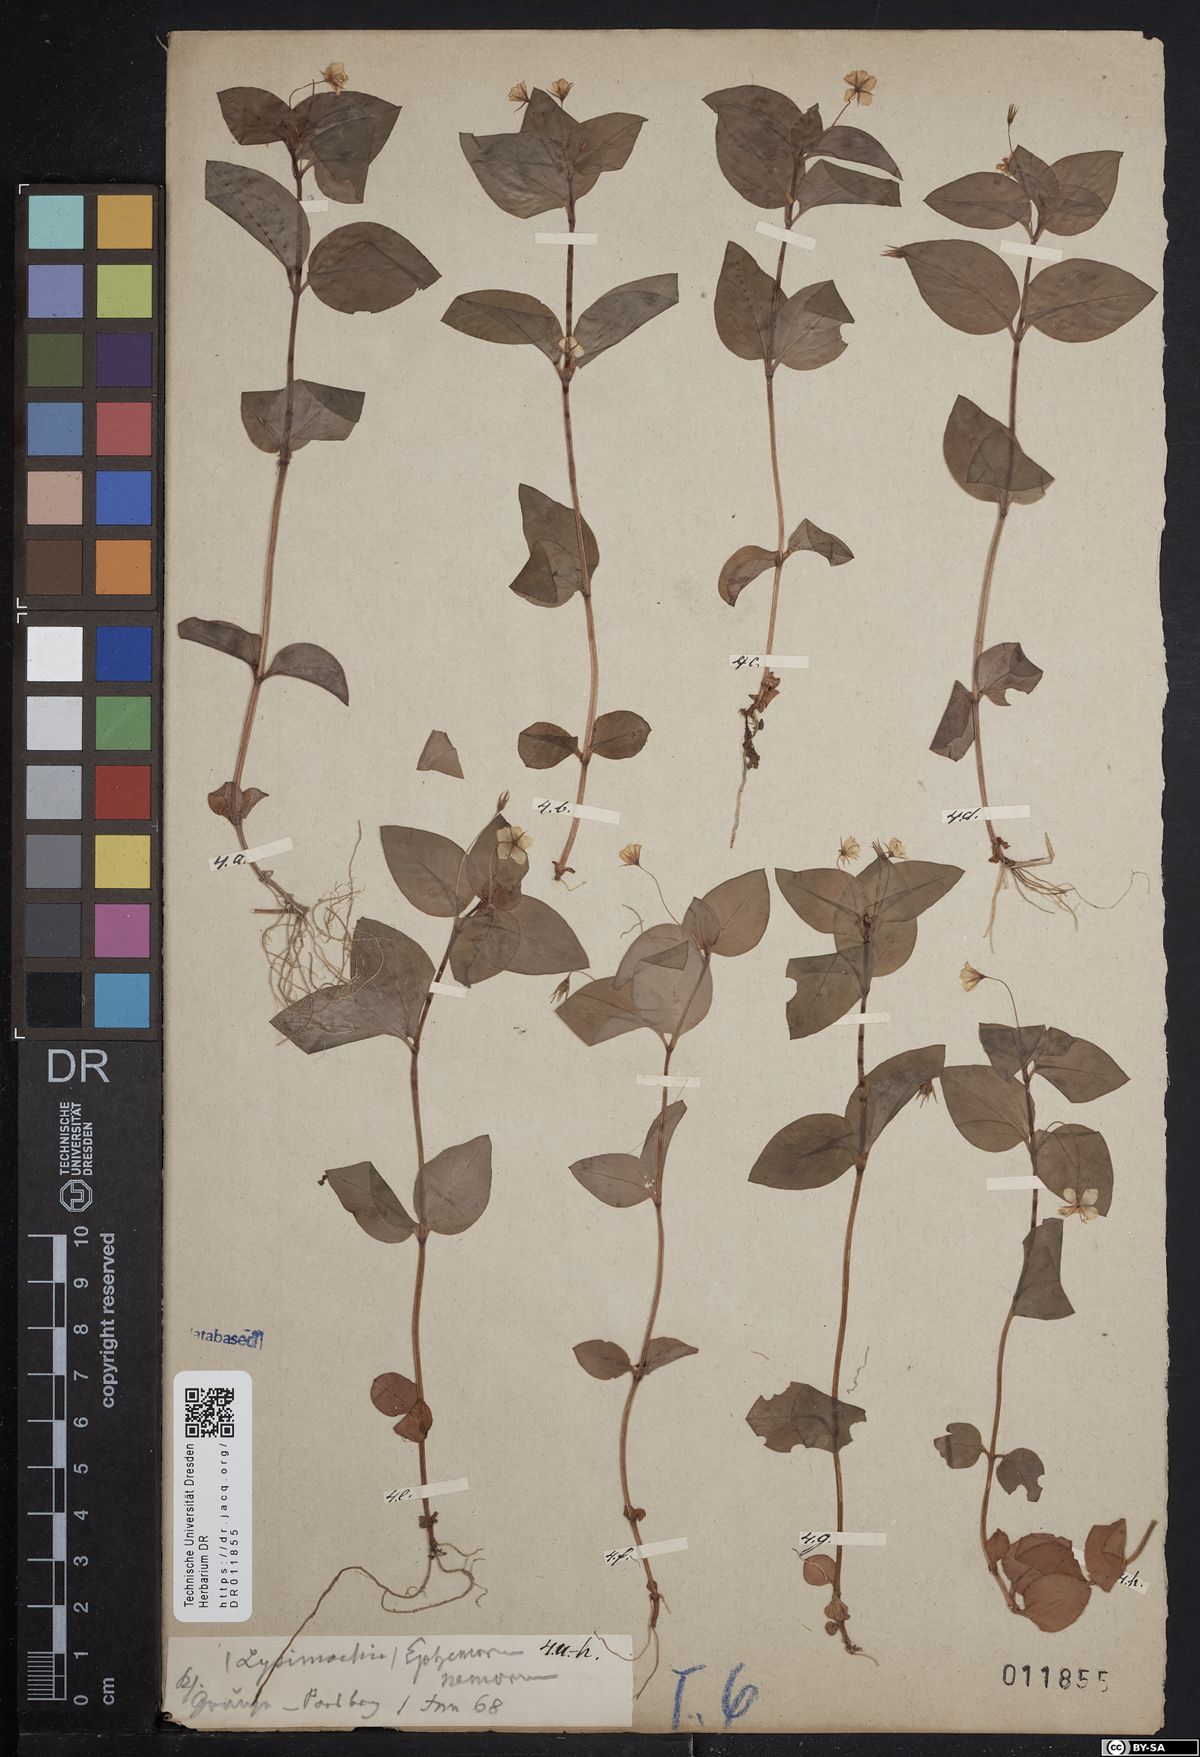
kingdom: Plantae
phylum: Tracheophyta
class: Magnoliopsida
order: Ericales
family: Primulaceae
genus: Lysimachia
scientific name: Lysimachia nemorum
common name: Yellow pimpernel
